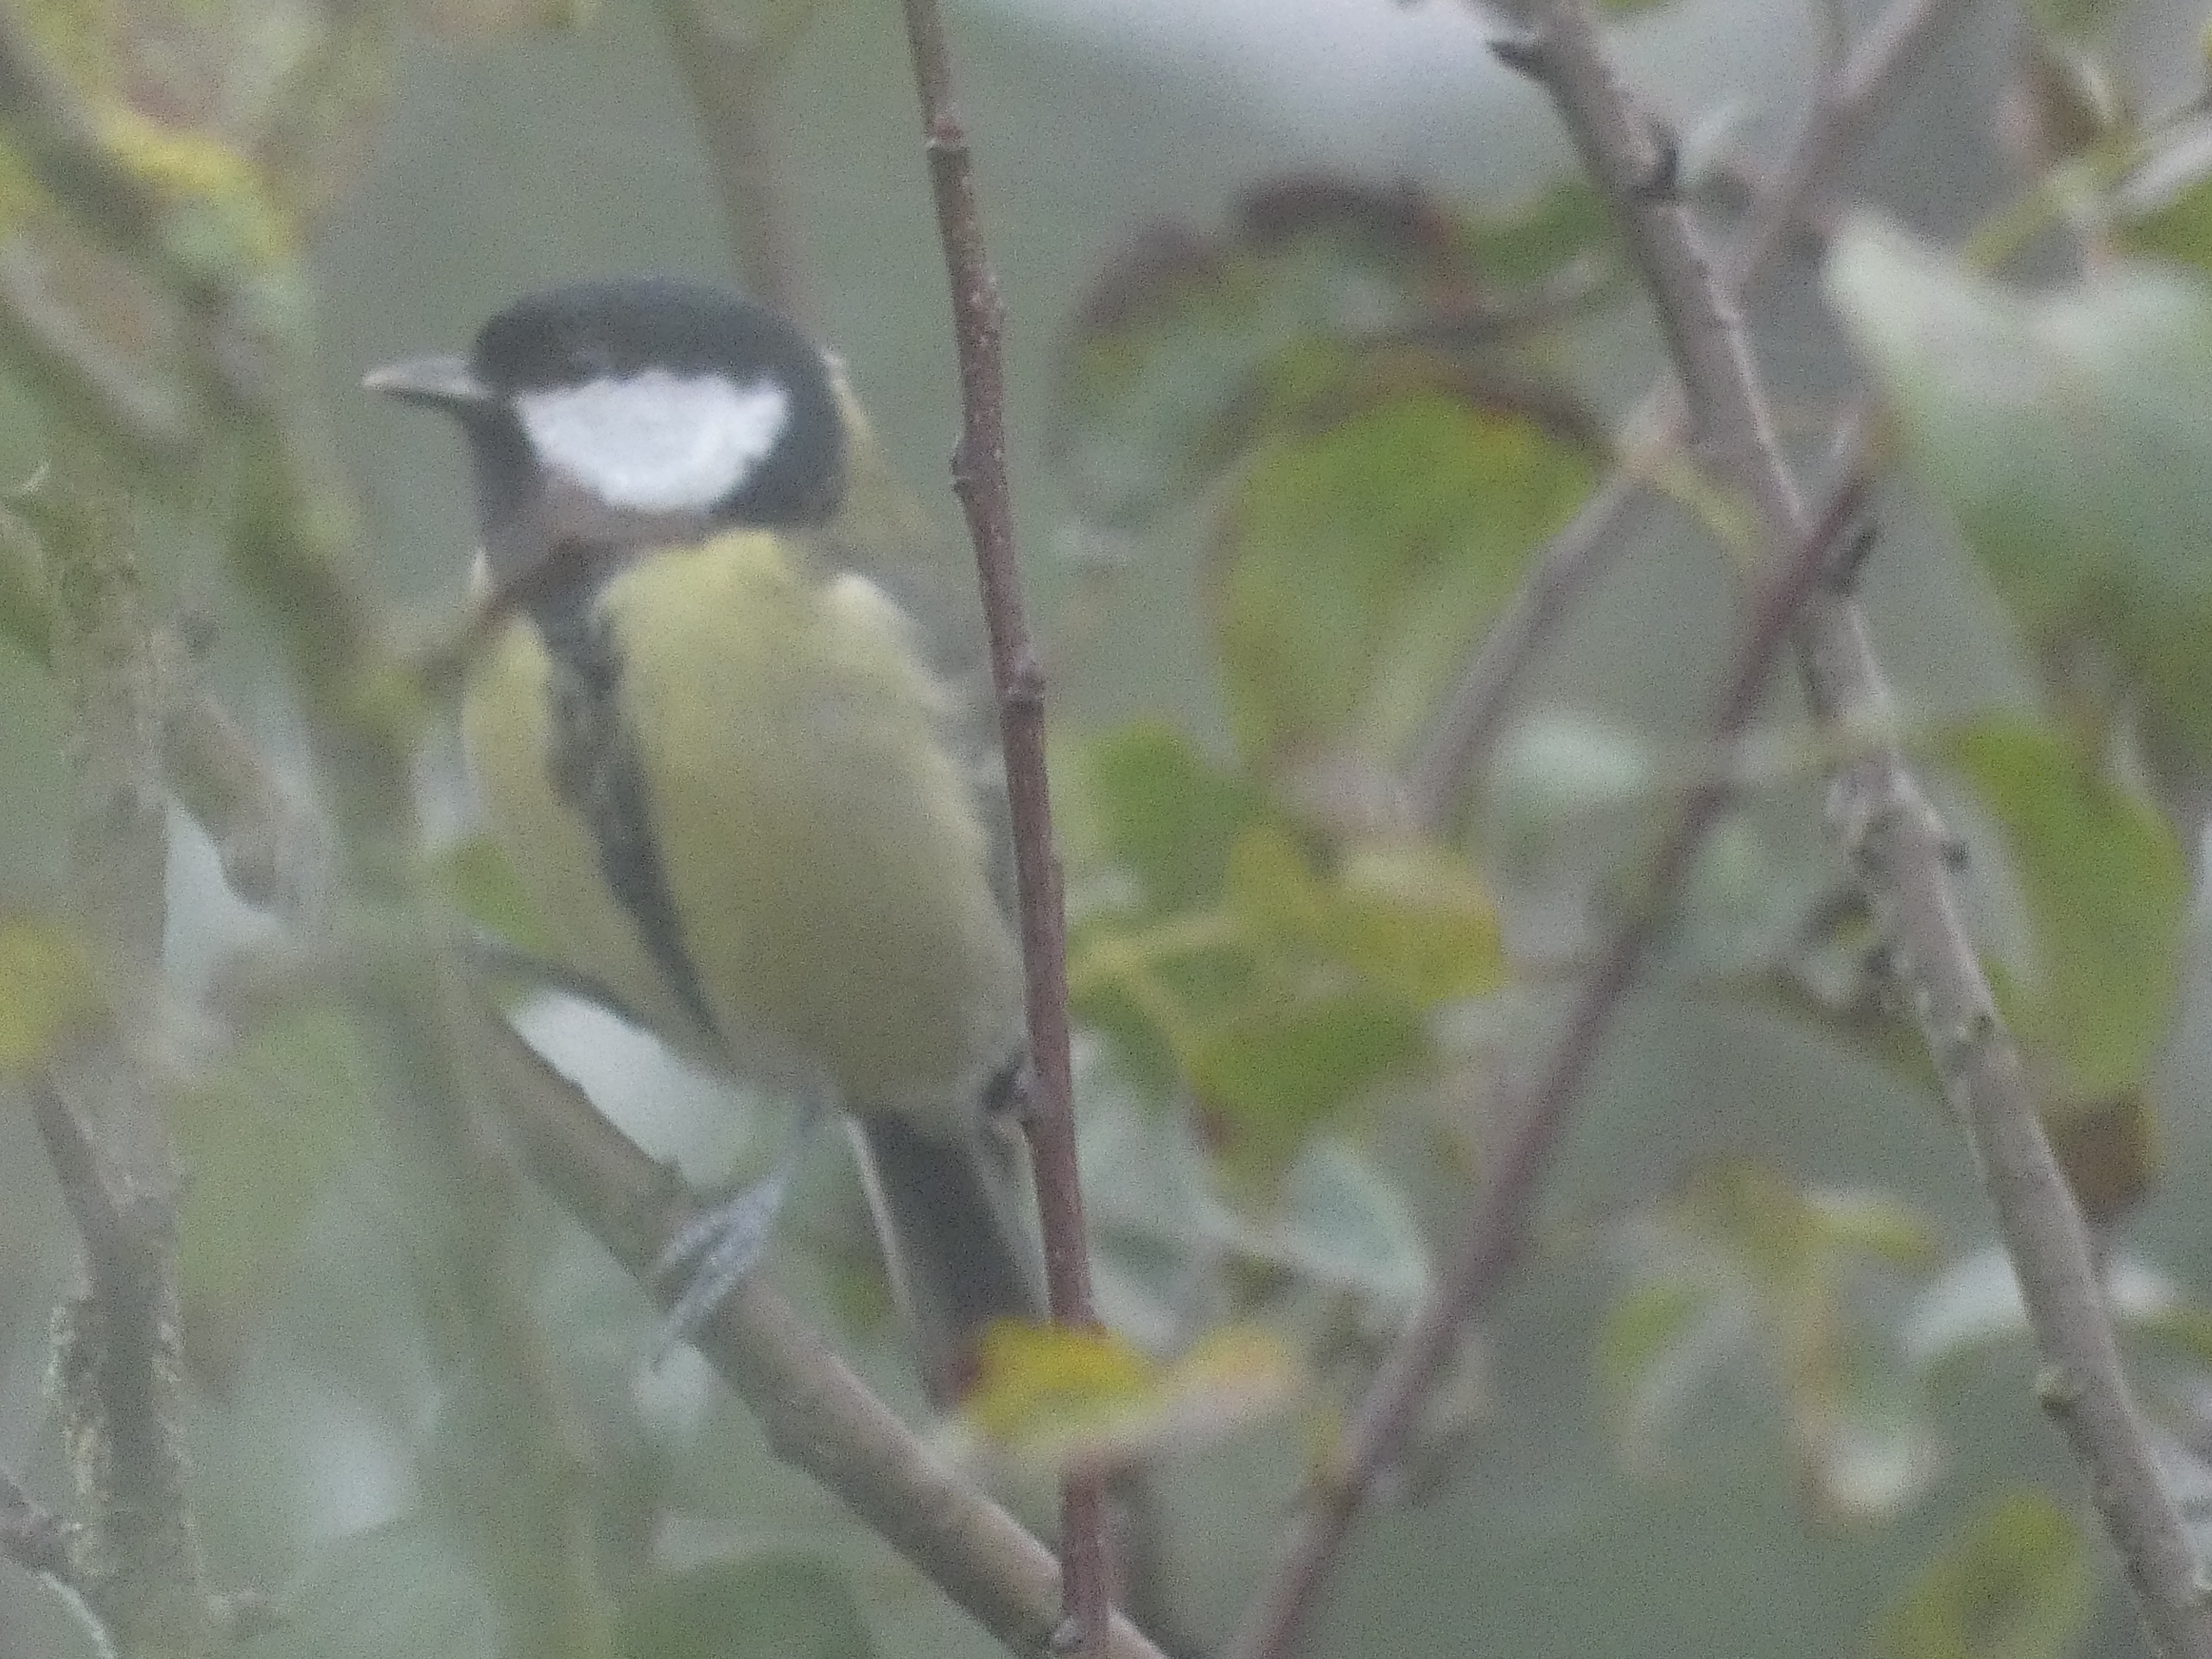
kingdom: Animalia
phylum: Chordata
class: Aves
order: Passeriformes
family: Paridae
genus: Parus
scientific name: Parus major
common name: Musvit
